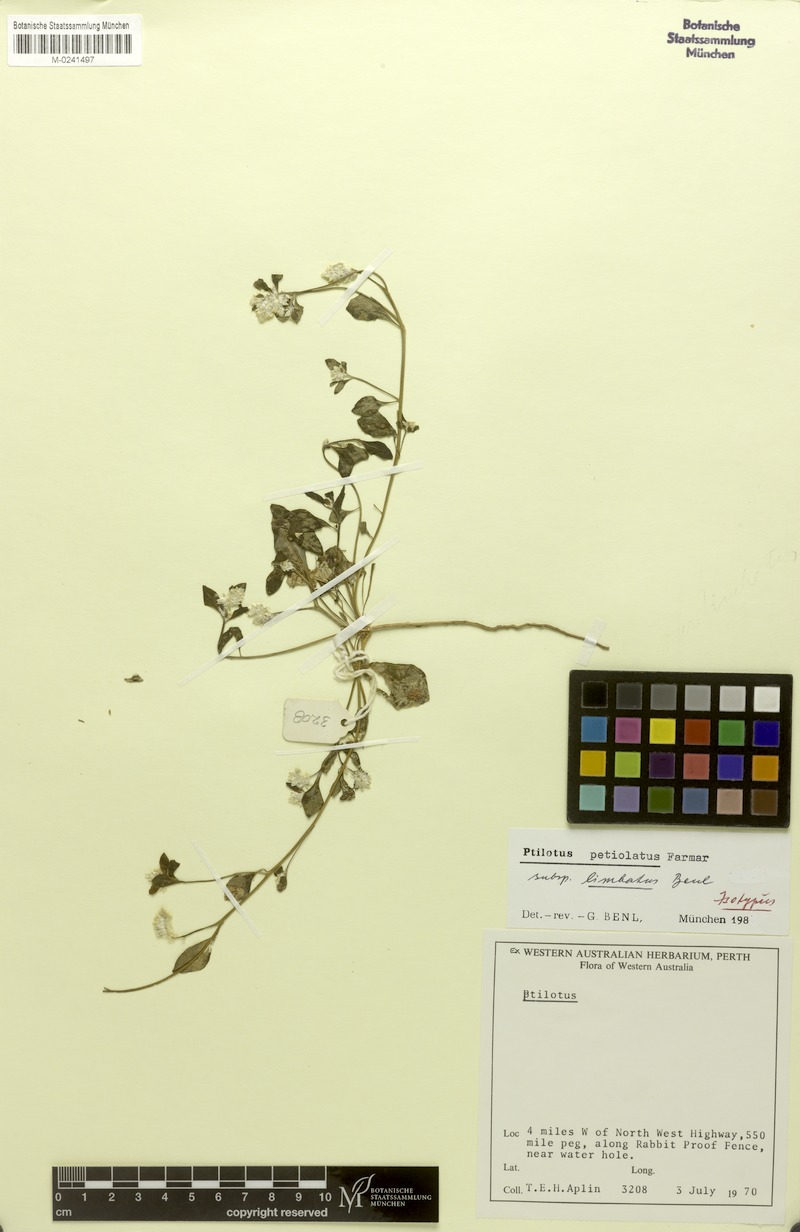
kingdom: Plantae
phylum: Tracheophyta
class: Magnoliopsida
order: Caryophyllales
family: Amaranthaceae
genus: Ptilotus
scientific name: Ptilotus murrayi
